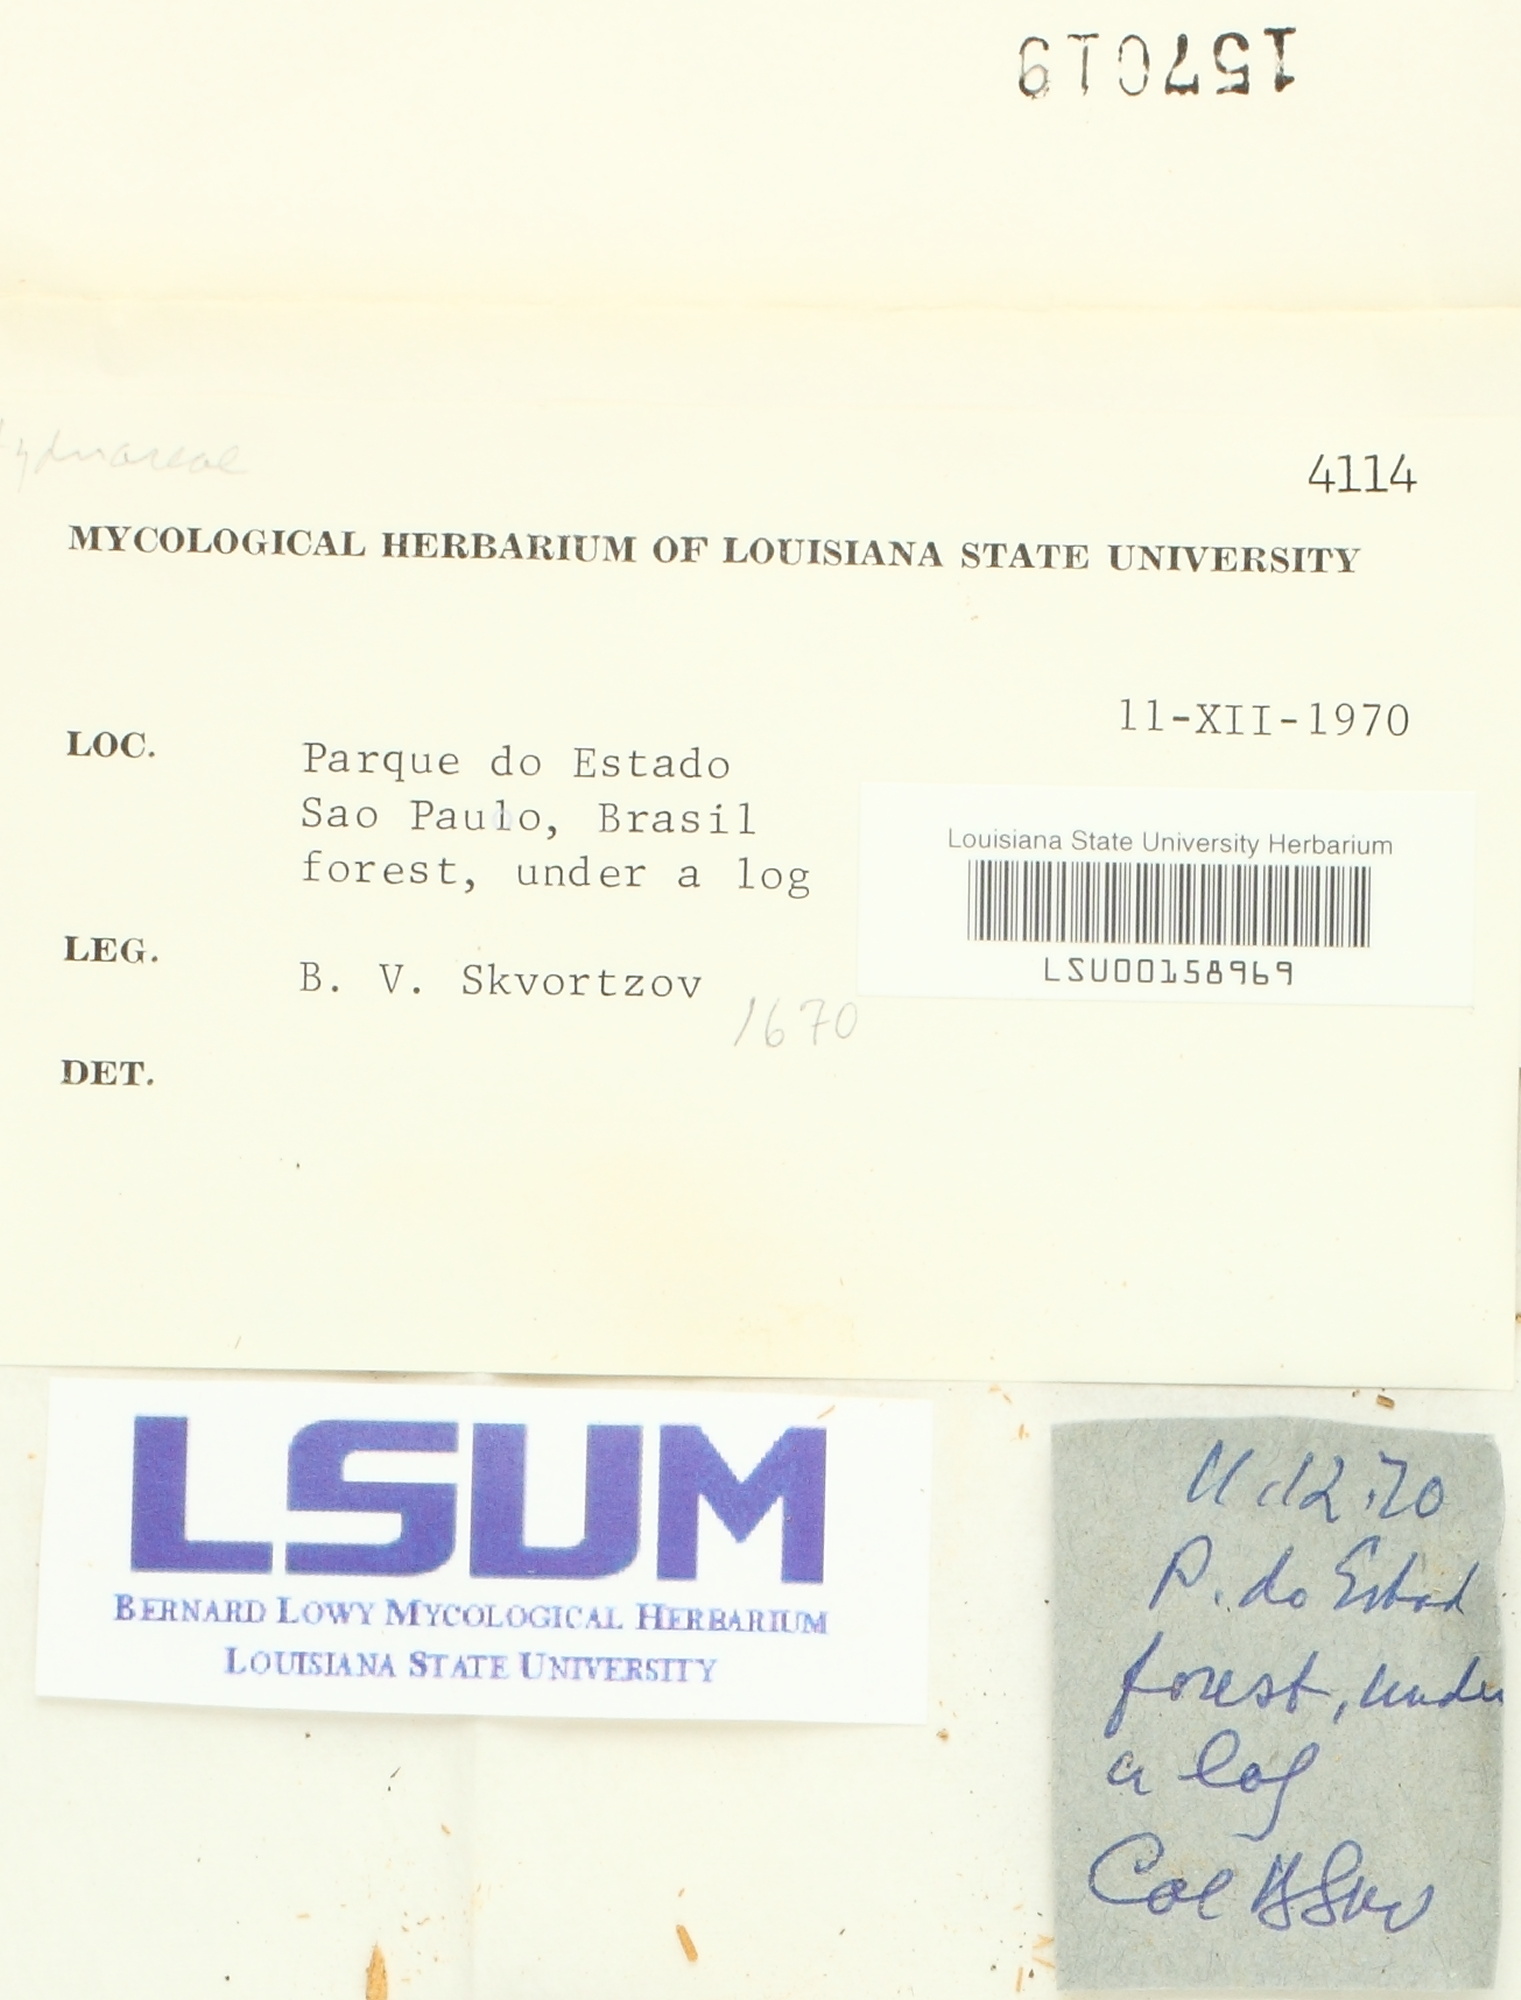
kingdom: Fungi
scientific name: Fungi
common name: Fungi
